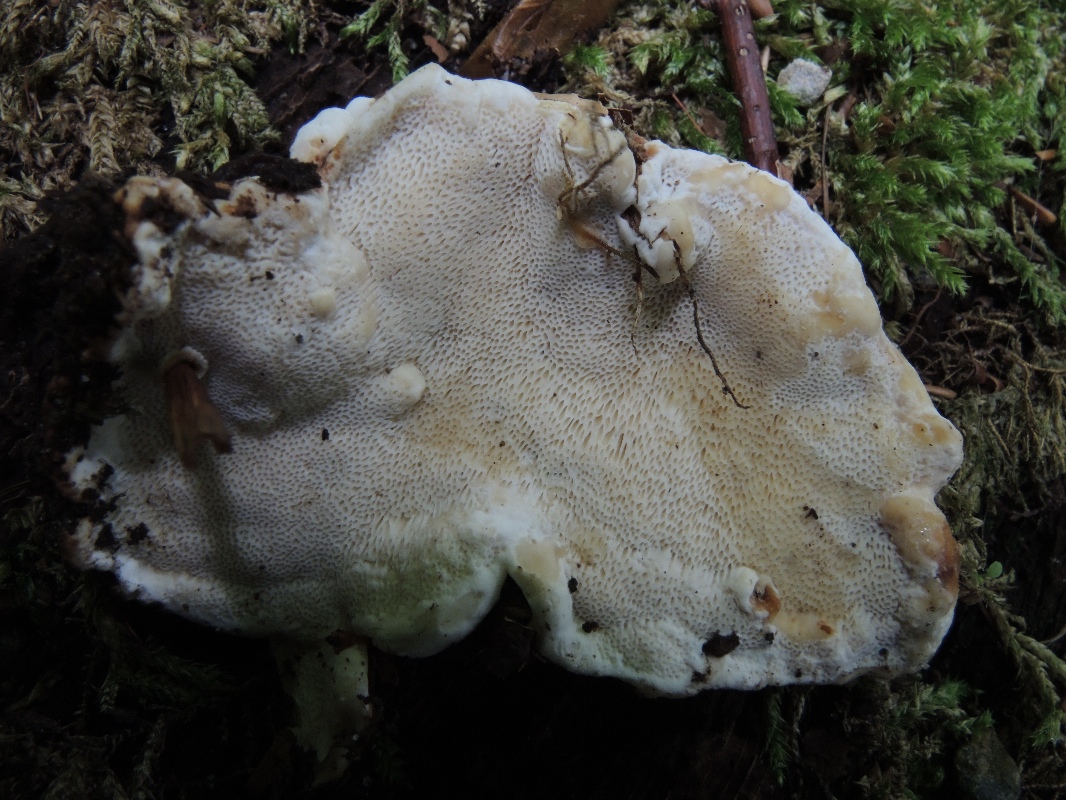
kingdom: Fungi
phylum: Basidiomycota
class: Agaricomycetes
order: Russulales
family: Bondarzewiaceae
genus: Heterobasidion
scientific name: Heterobasidion annosum
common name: almindelig rodfordærver
